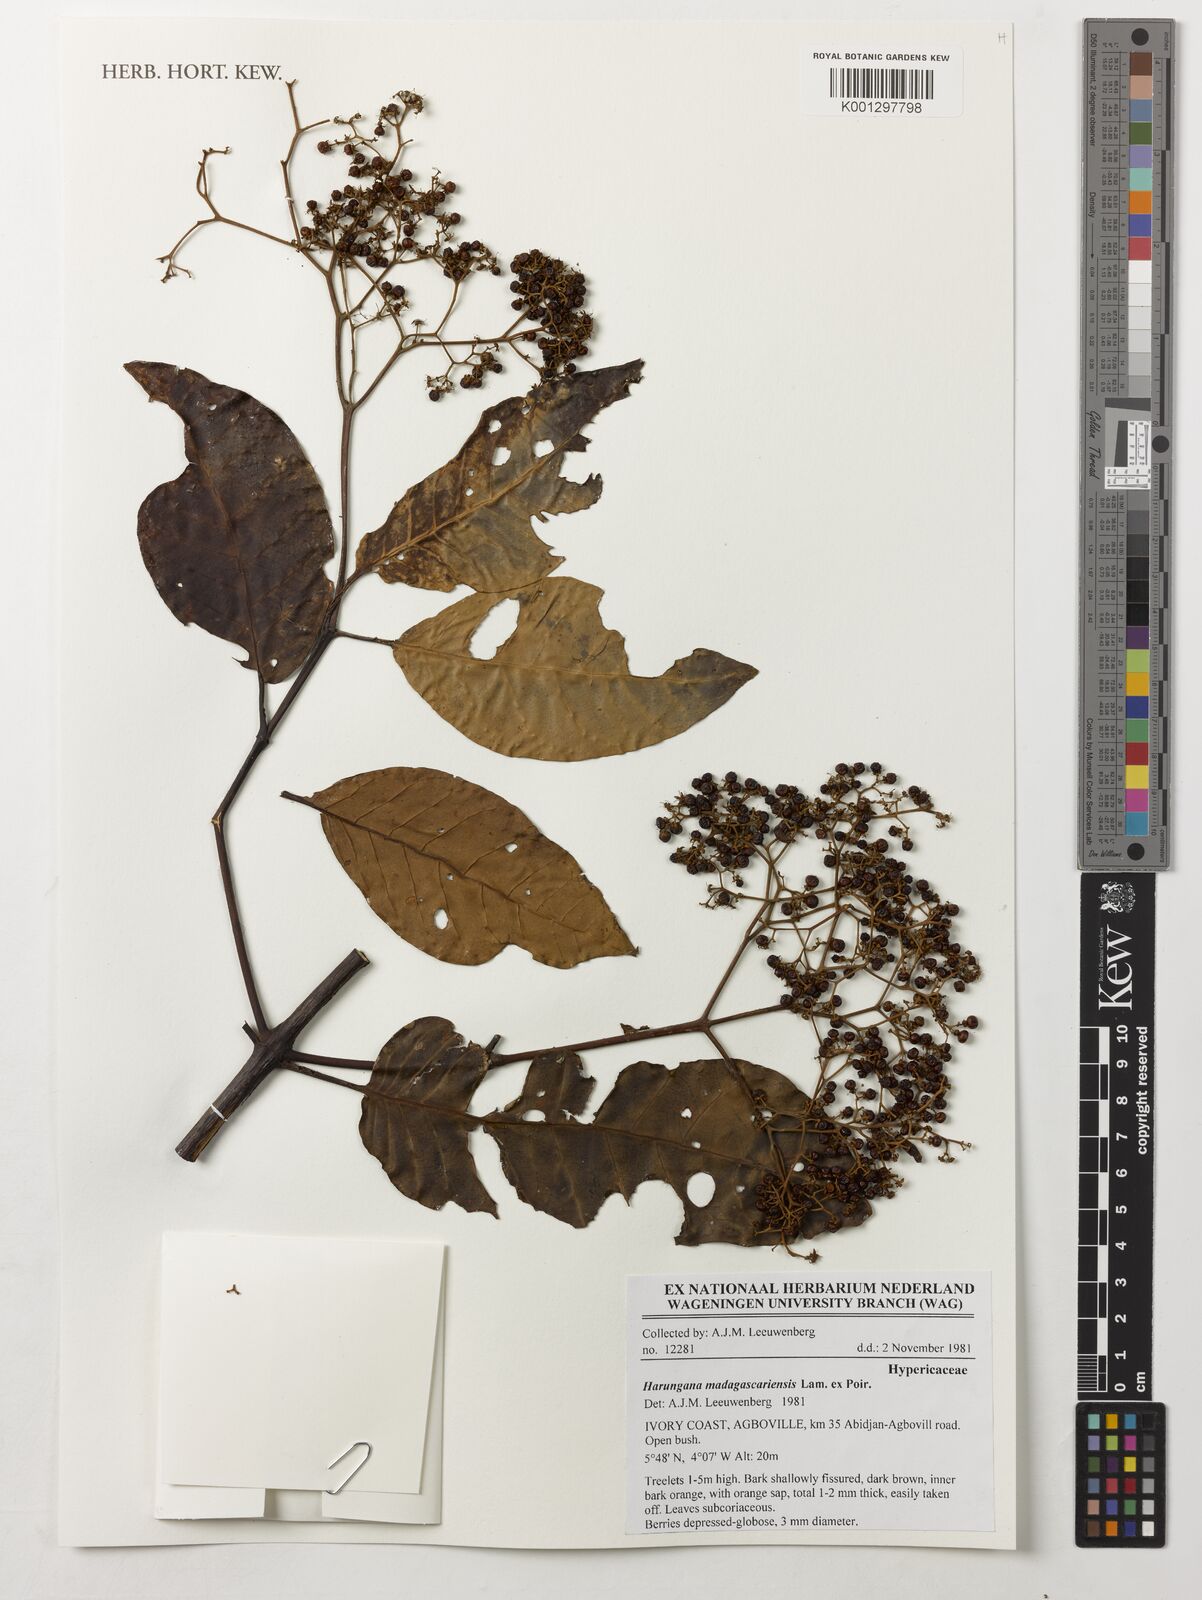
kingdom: Plantae
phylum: Tracheophyta
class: Magnoliopsida
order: Malpighiales
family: Hypericaceae
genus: Harungana
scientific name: Harungana madagascariensis
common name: Orange milktree
